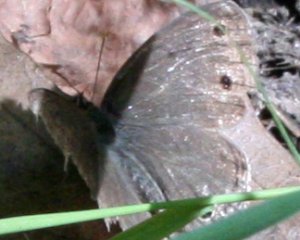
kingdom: Animalia
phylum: Arthropoda
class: Insecta
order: Lepidoptera
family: Nymphalidae
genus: Euptychia
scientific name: Euptychia cymela
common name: Little Wood Satyr
